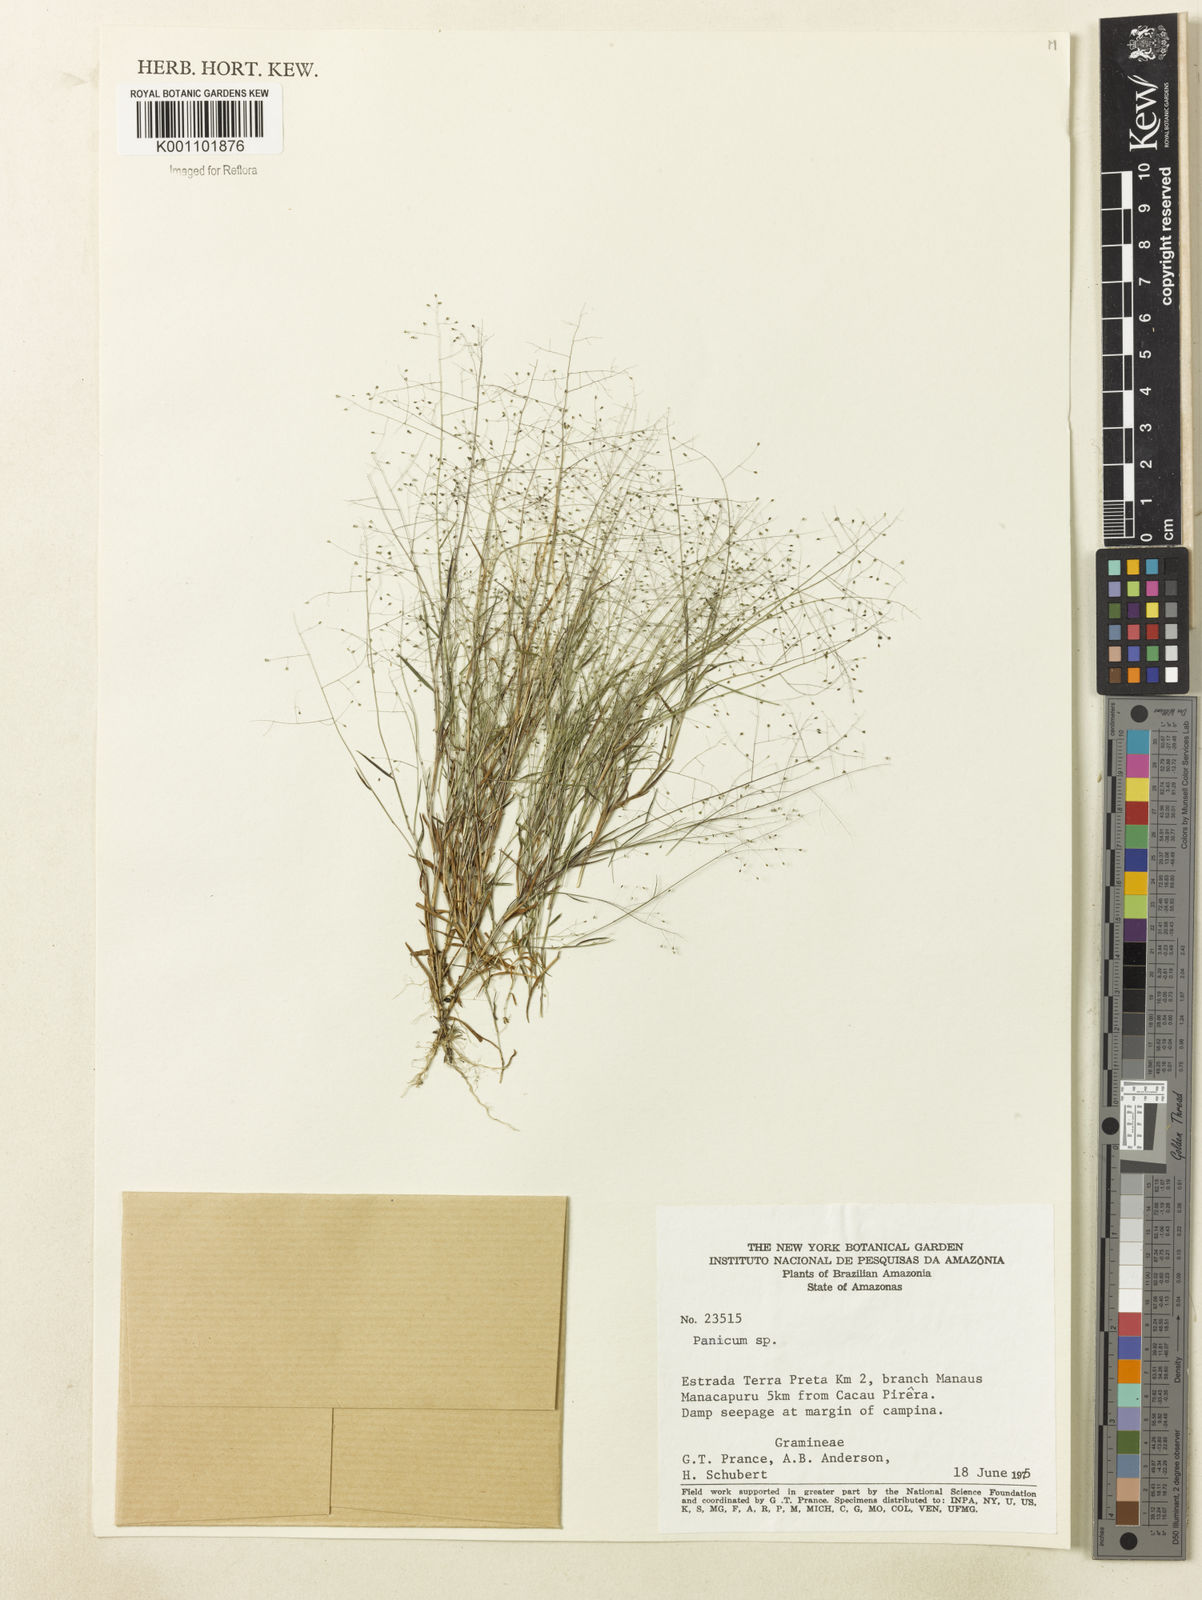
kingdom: Plantae
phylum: Tracheophyta
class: Liliopsida
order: Poales
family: Poaceae
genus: Trichanthecium
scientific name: Trichanthecium polycomum
